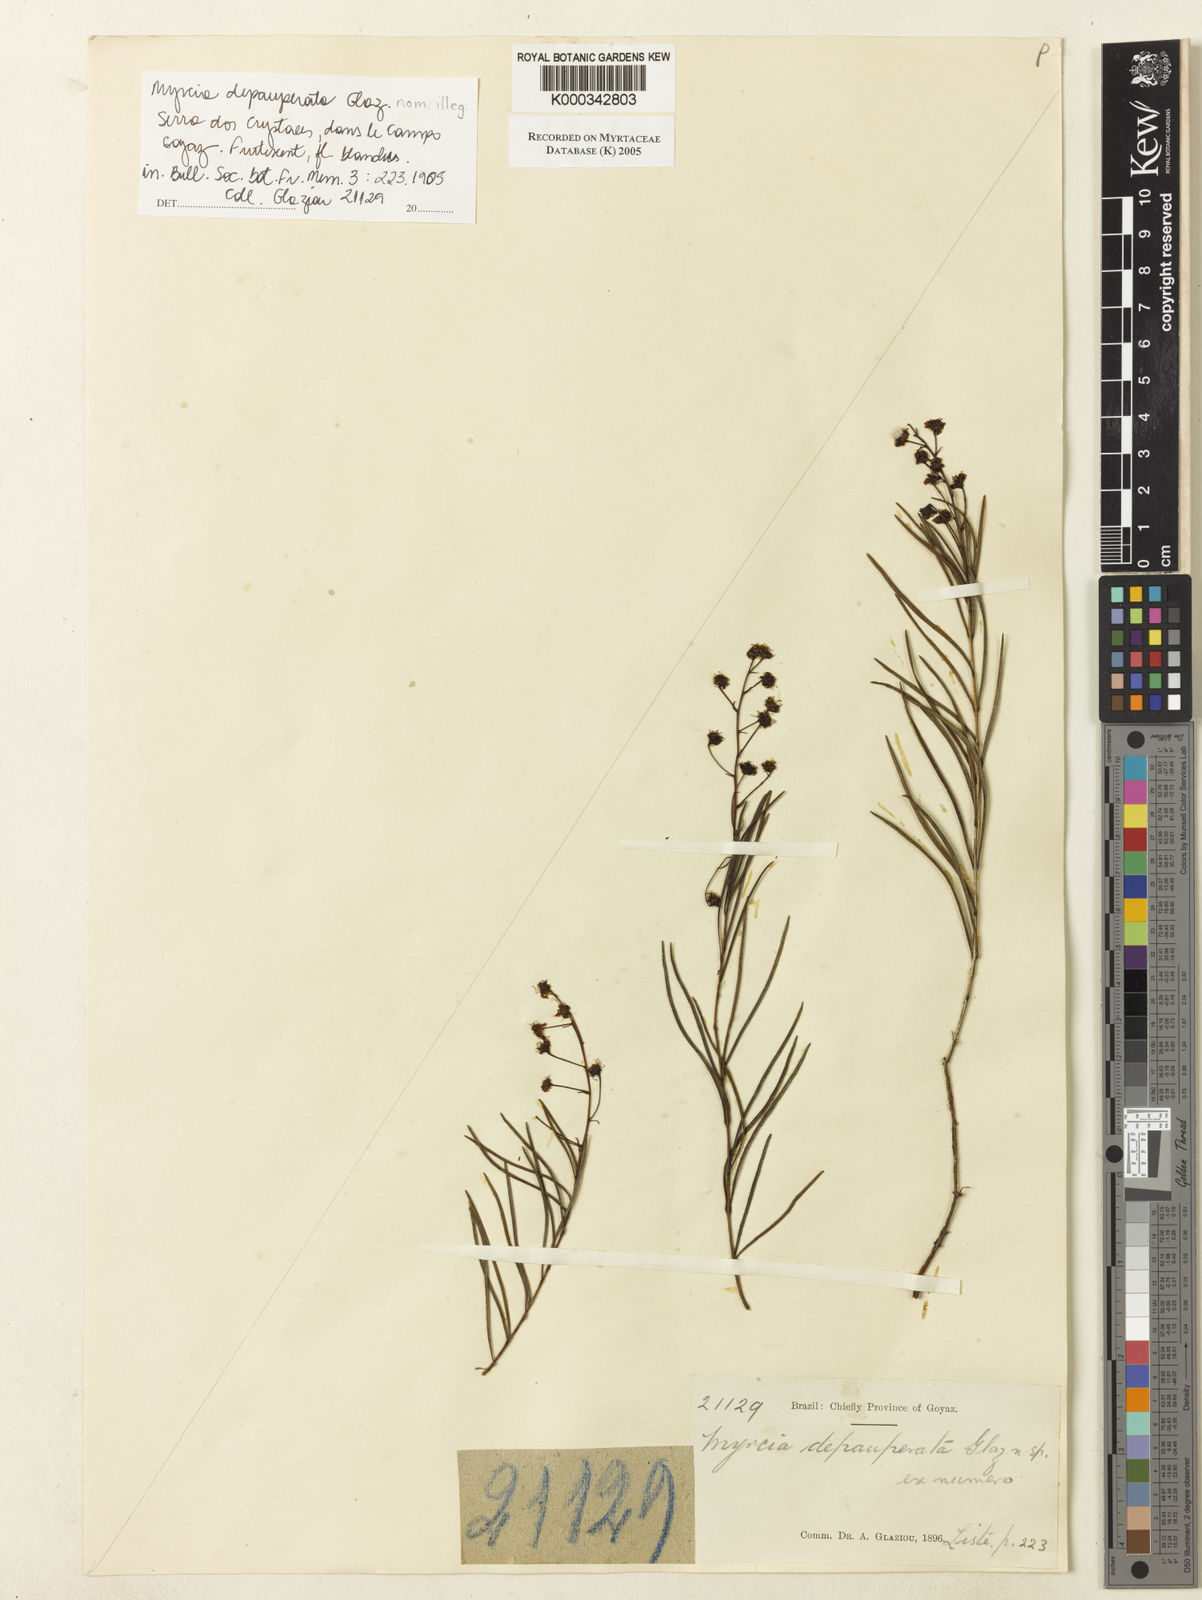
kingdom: Plantae
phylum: Tracheophyta
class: Magnoliopsida
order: Myrtales
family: Myrtaceae
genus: Myrcia
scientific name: Myrcia
